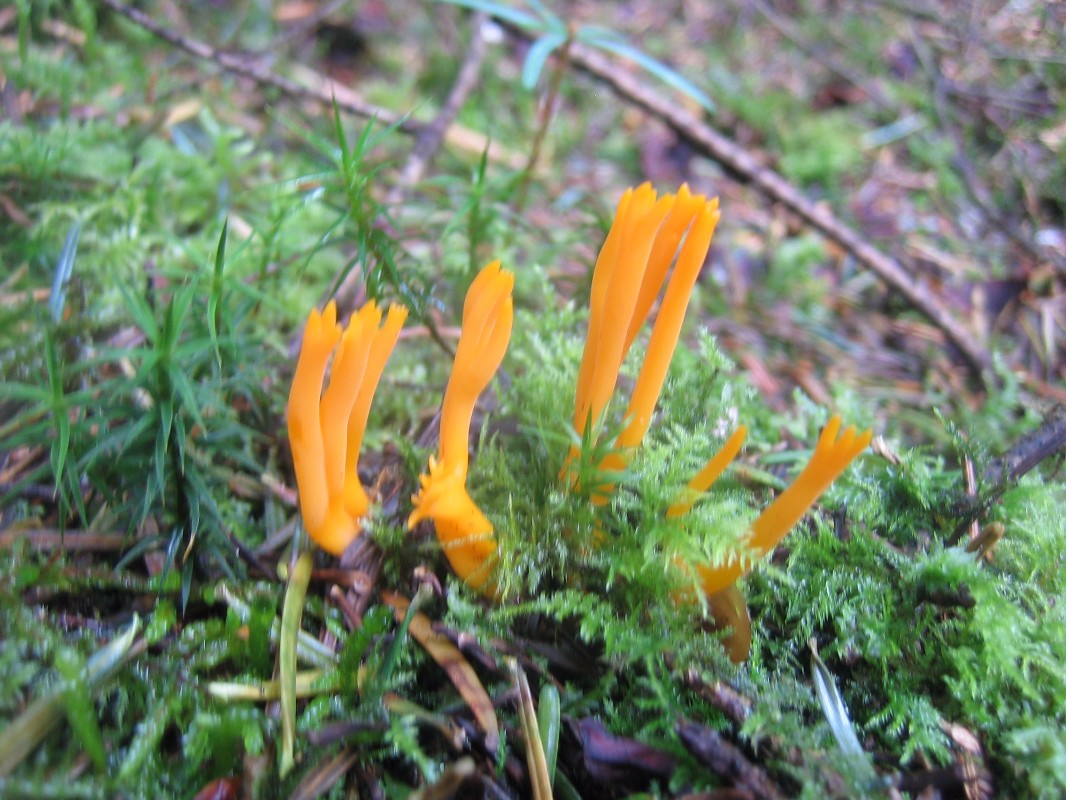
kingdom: Fungi
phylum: Basidiomycota
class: Dacrymycetes
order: Dacrymycetales
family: Dacrymycetaceae
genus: Calocera
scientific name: Calocera viscosa
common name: almindelig guldgaffel
